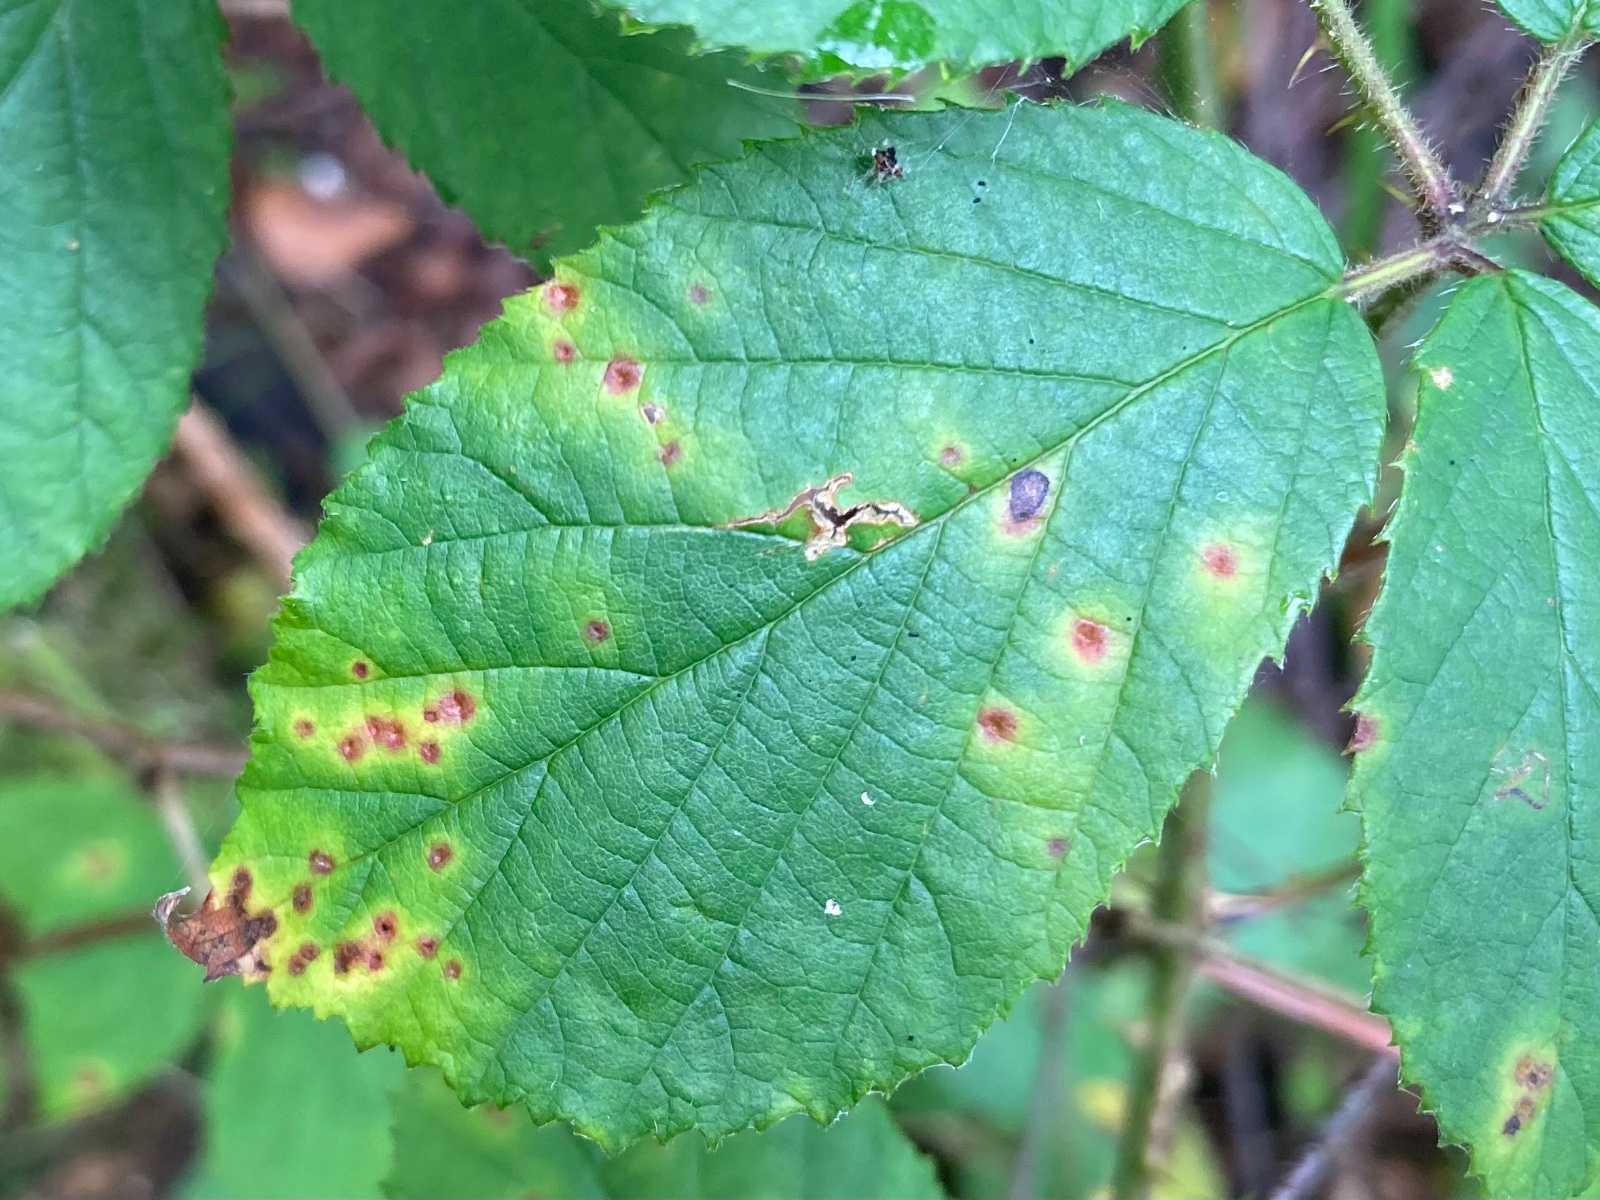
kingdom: Fungi
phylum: Basidiomycota
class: Pucciniomycetes
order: Pucciniales
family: Phragmidiaceae
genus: Phragmidium
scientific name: Phragmidium violaceum
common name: violet flercellerust
